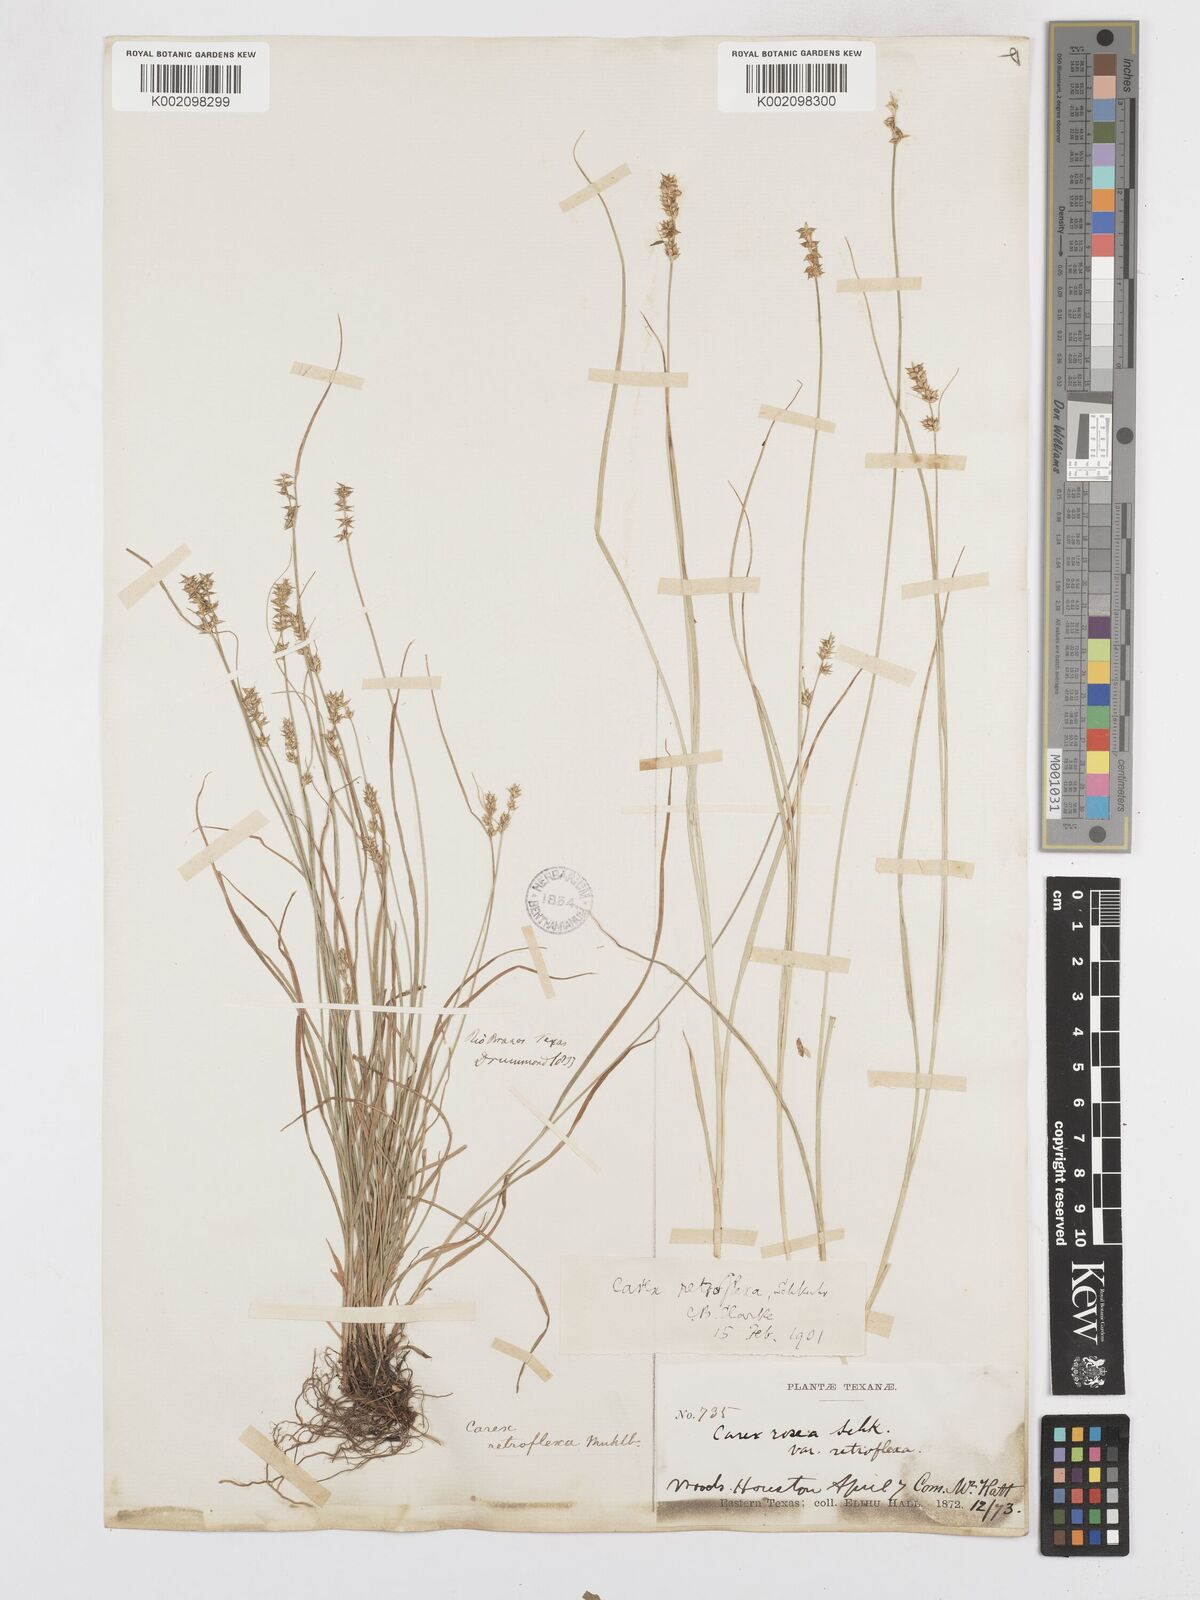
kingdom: Plantae
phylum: Tracheophyta
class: Liliopsida
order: Poales
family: Cyperaceae
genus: Carex
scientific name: Carex retroflexa
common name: Reflexed sedge
